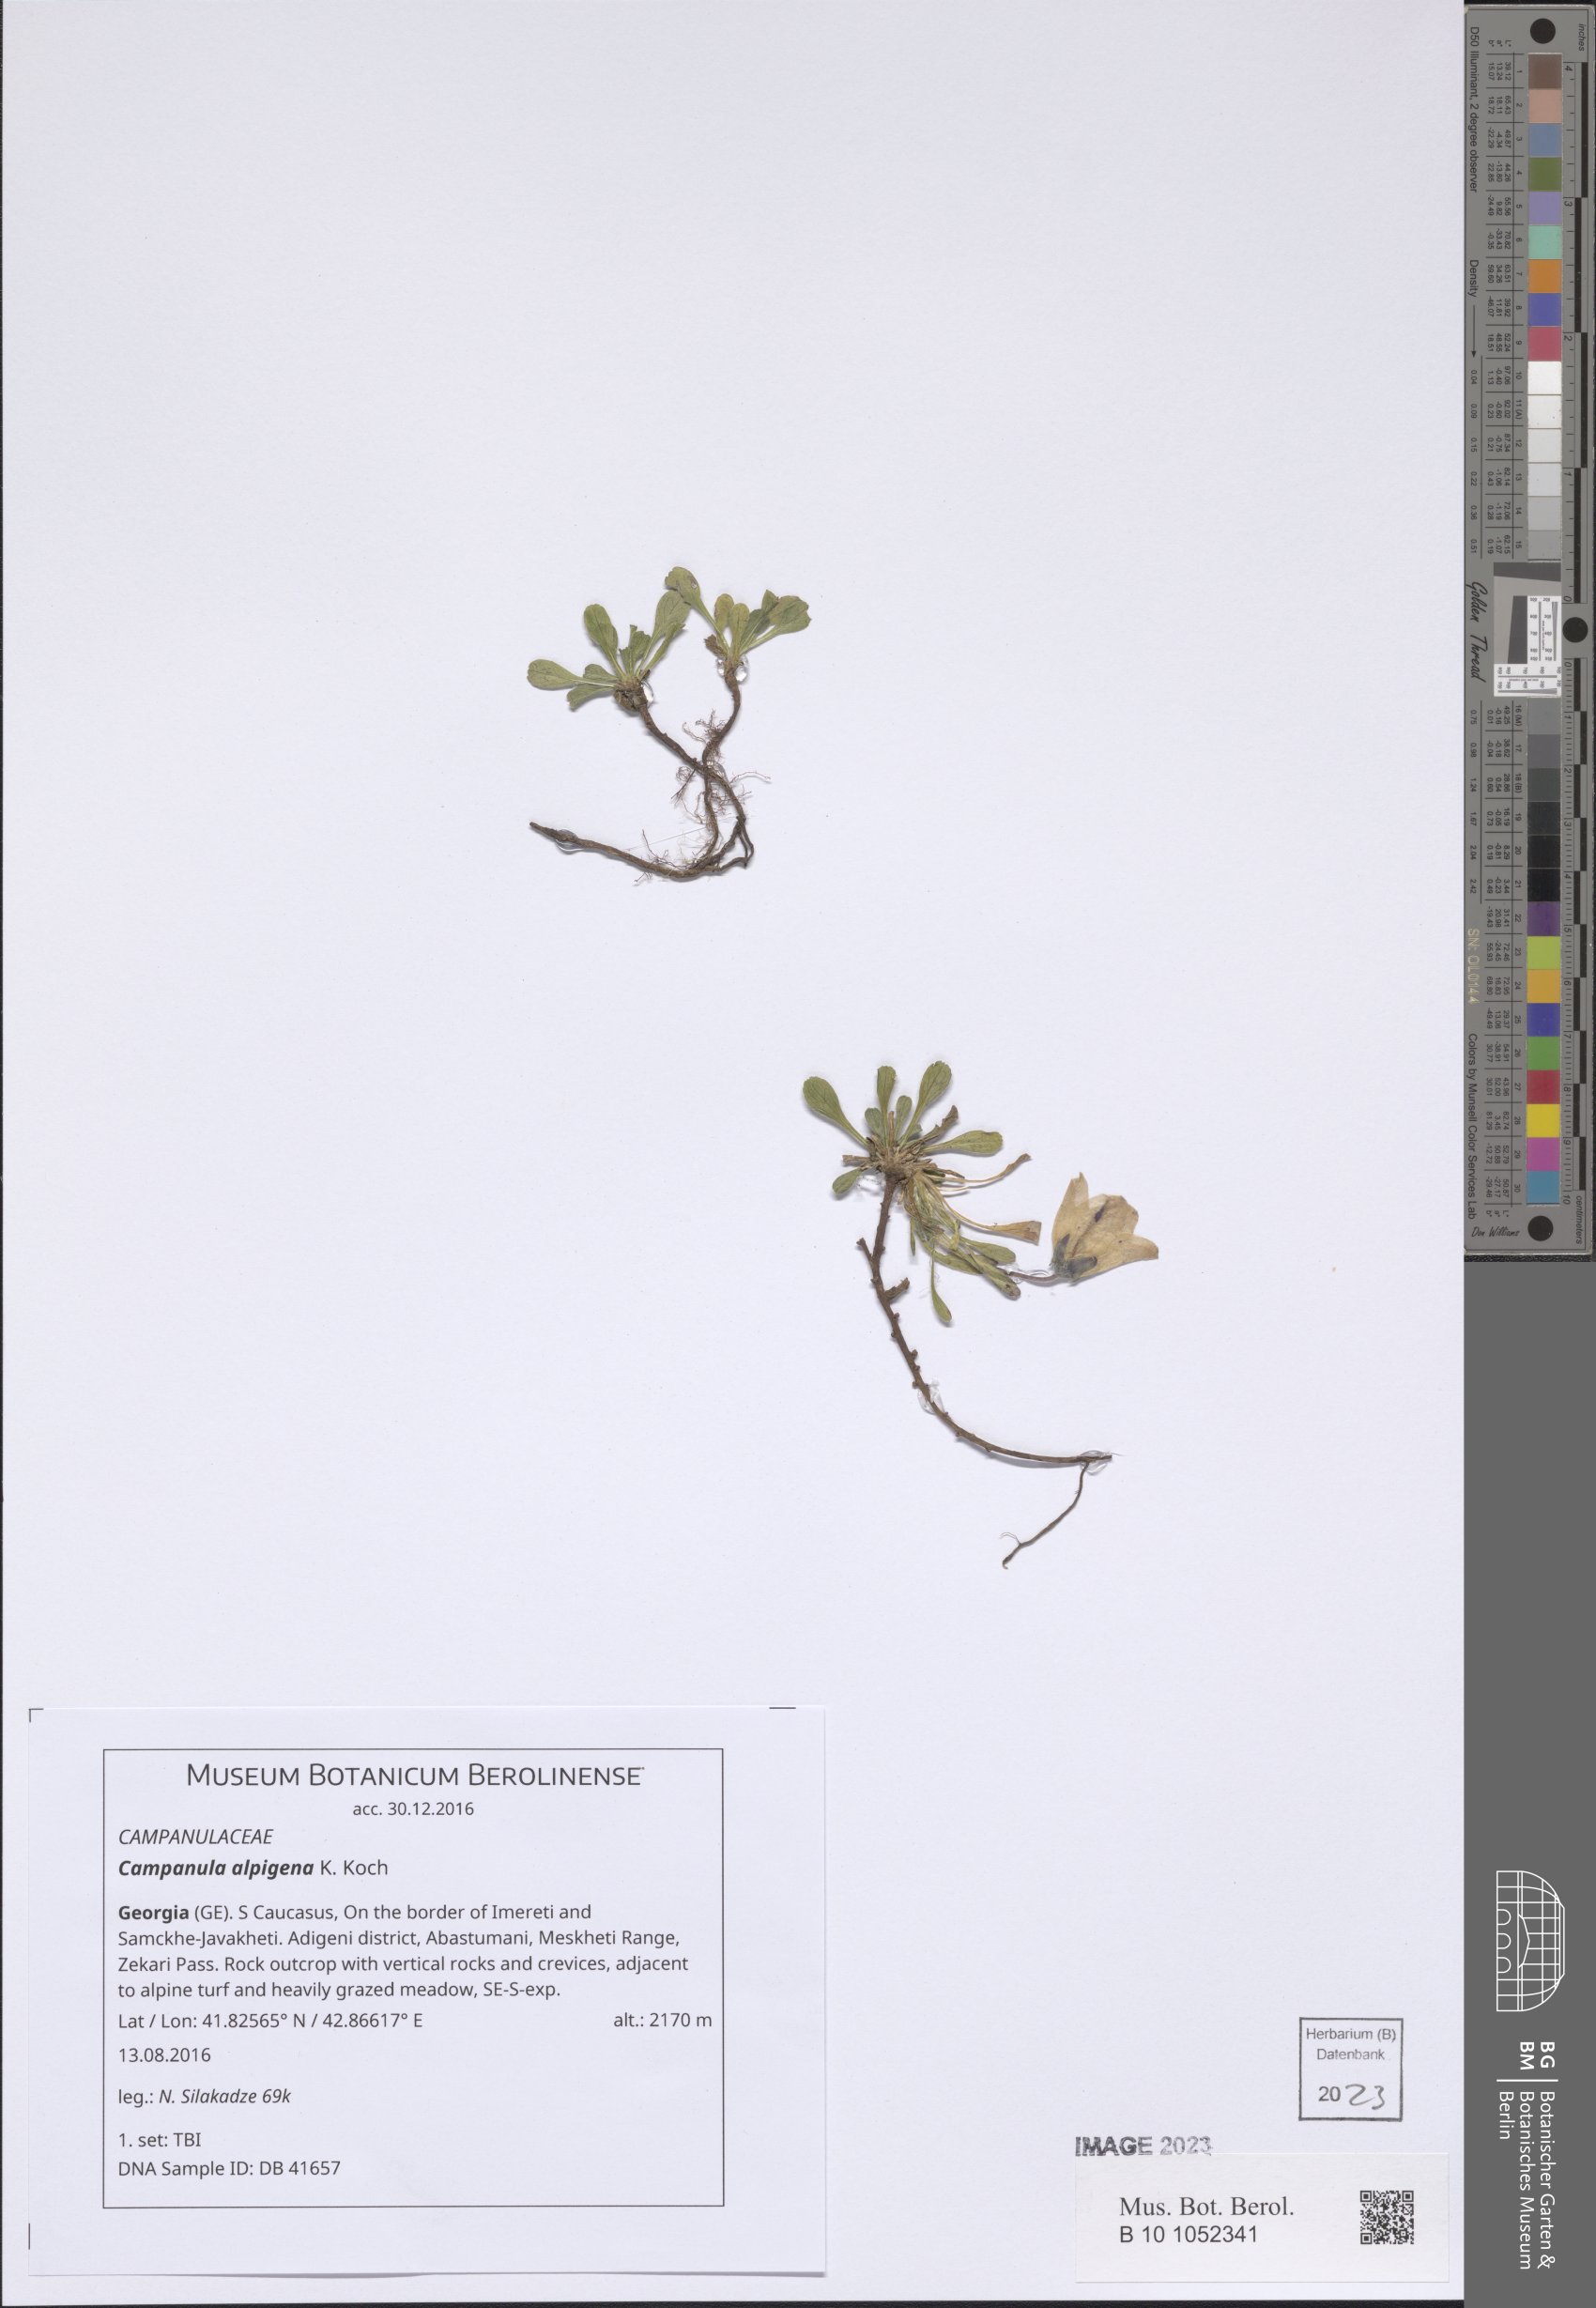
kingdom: Plantae
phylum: Tracheophyta
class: Magnoliopsida
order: Asterales
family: Campanulaceae
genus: Campanula
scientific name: Campanula saxifraga
